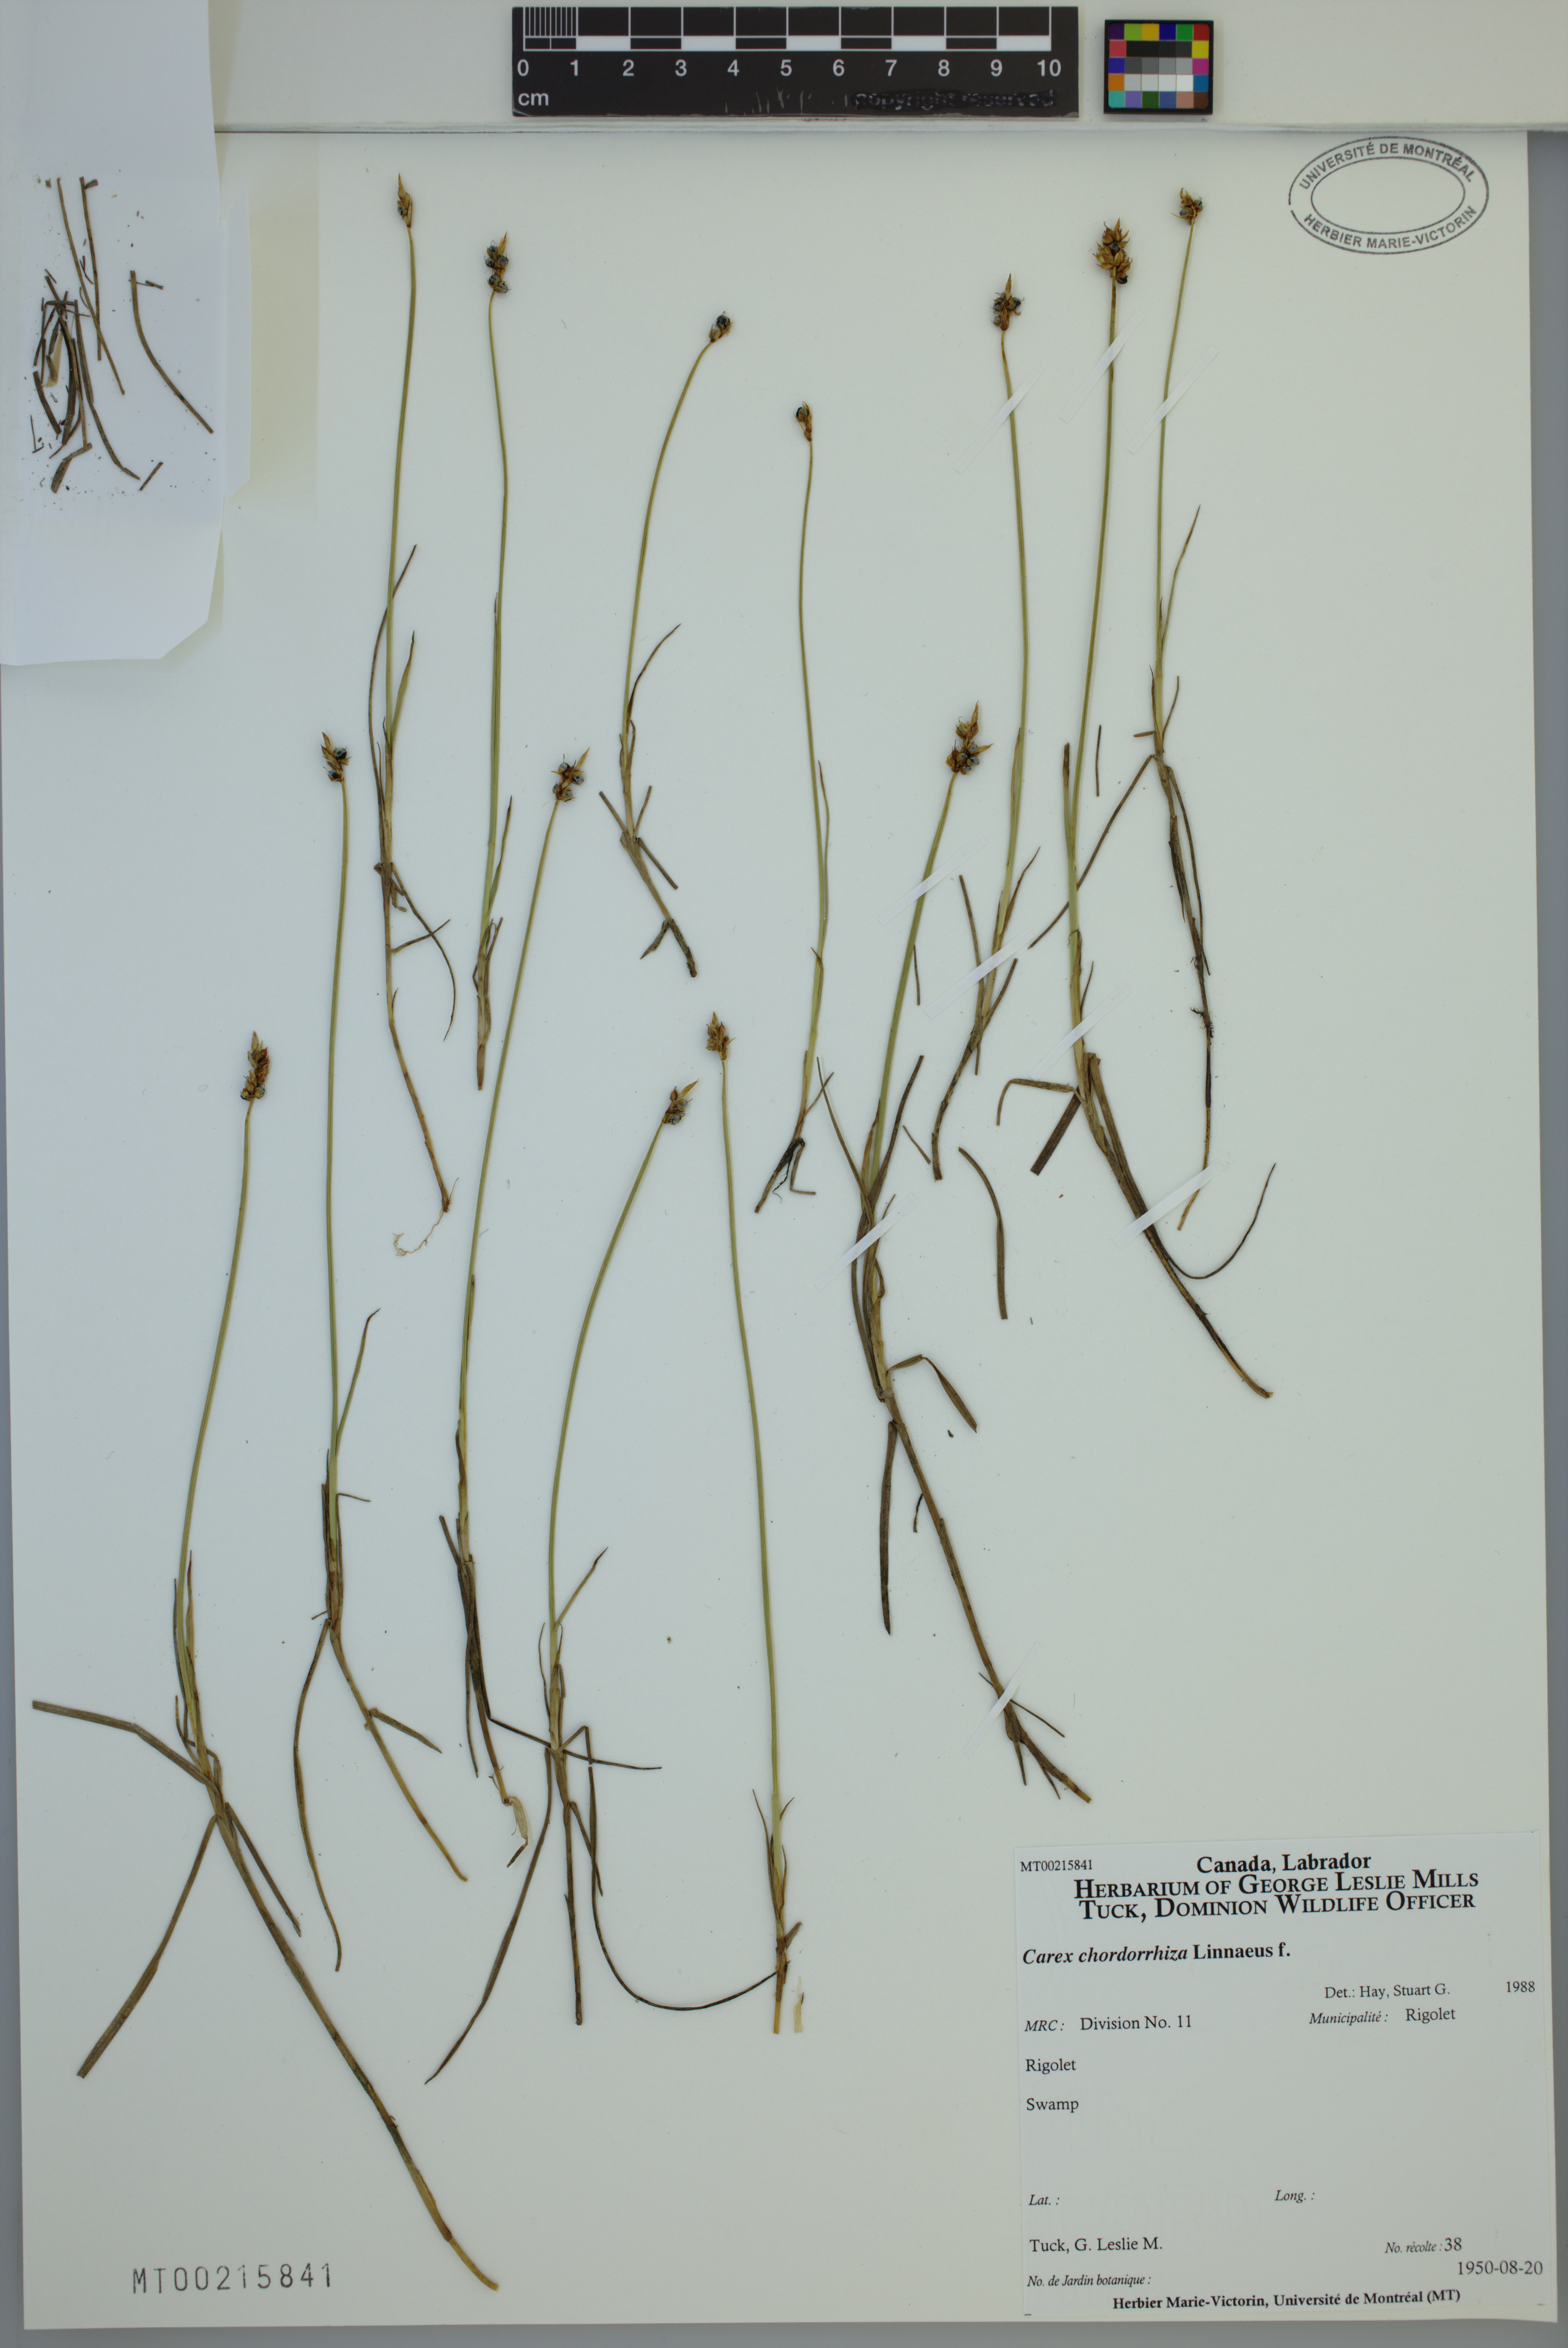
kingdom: Plantae
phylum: Tracheophyta
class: Liliopsida
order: Poales
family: Cyperaceae
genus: Carex
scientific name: Carex chordorrhiza
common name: String sedge
